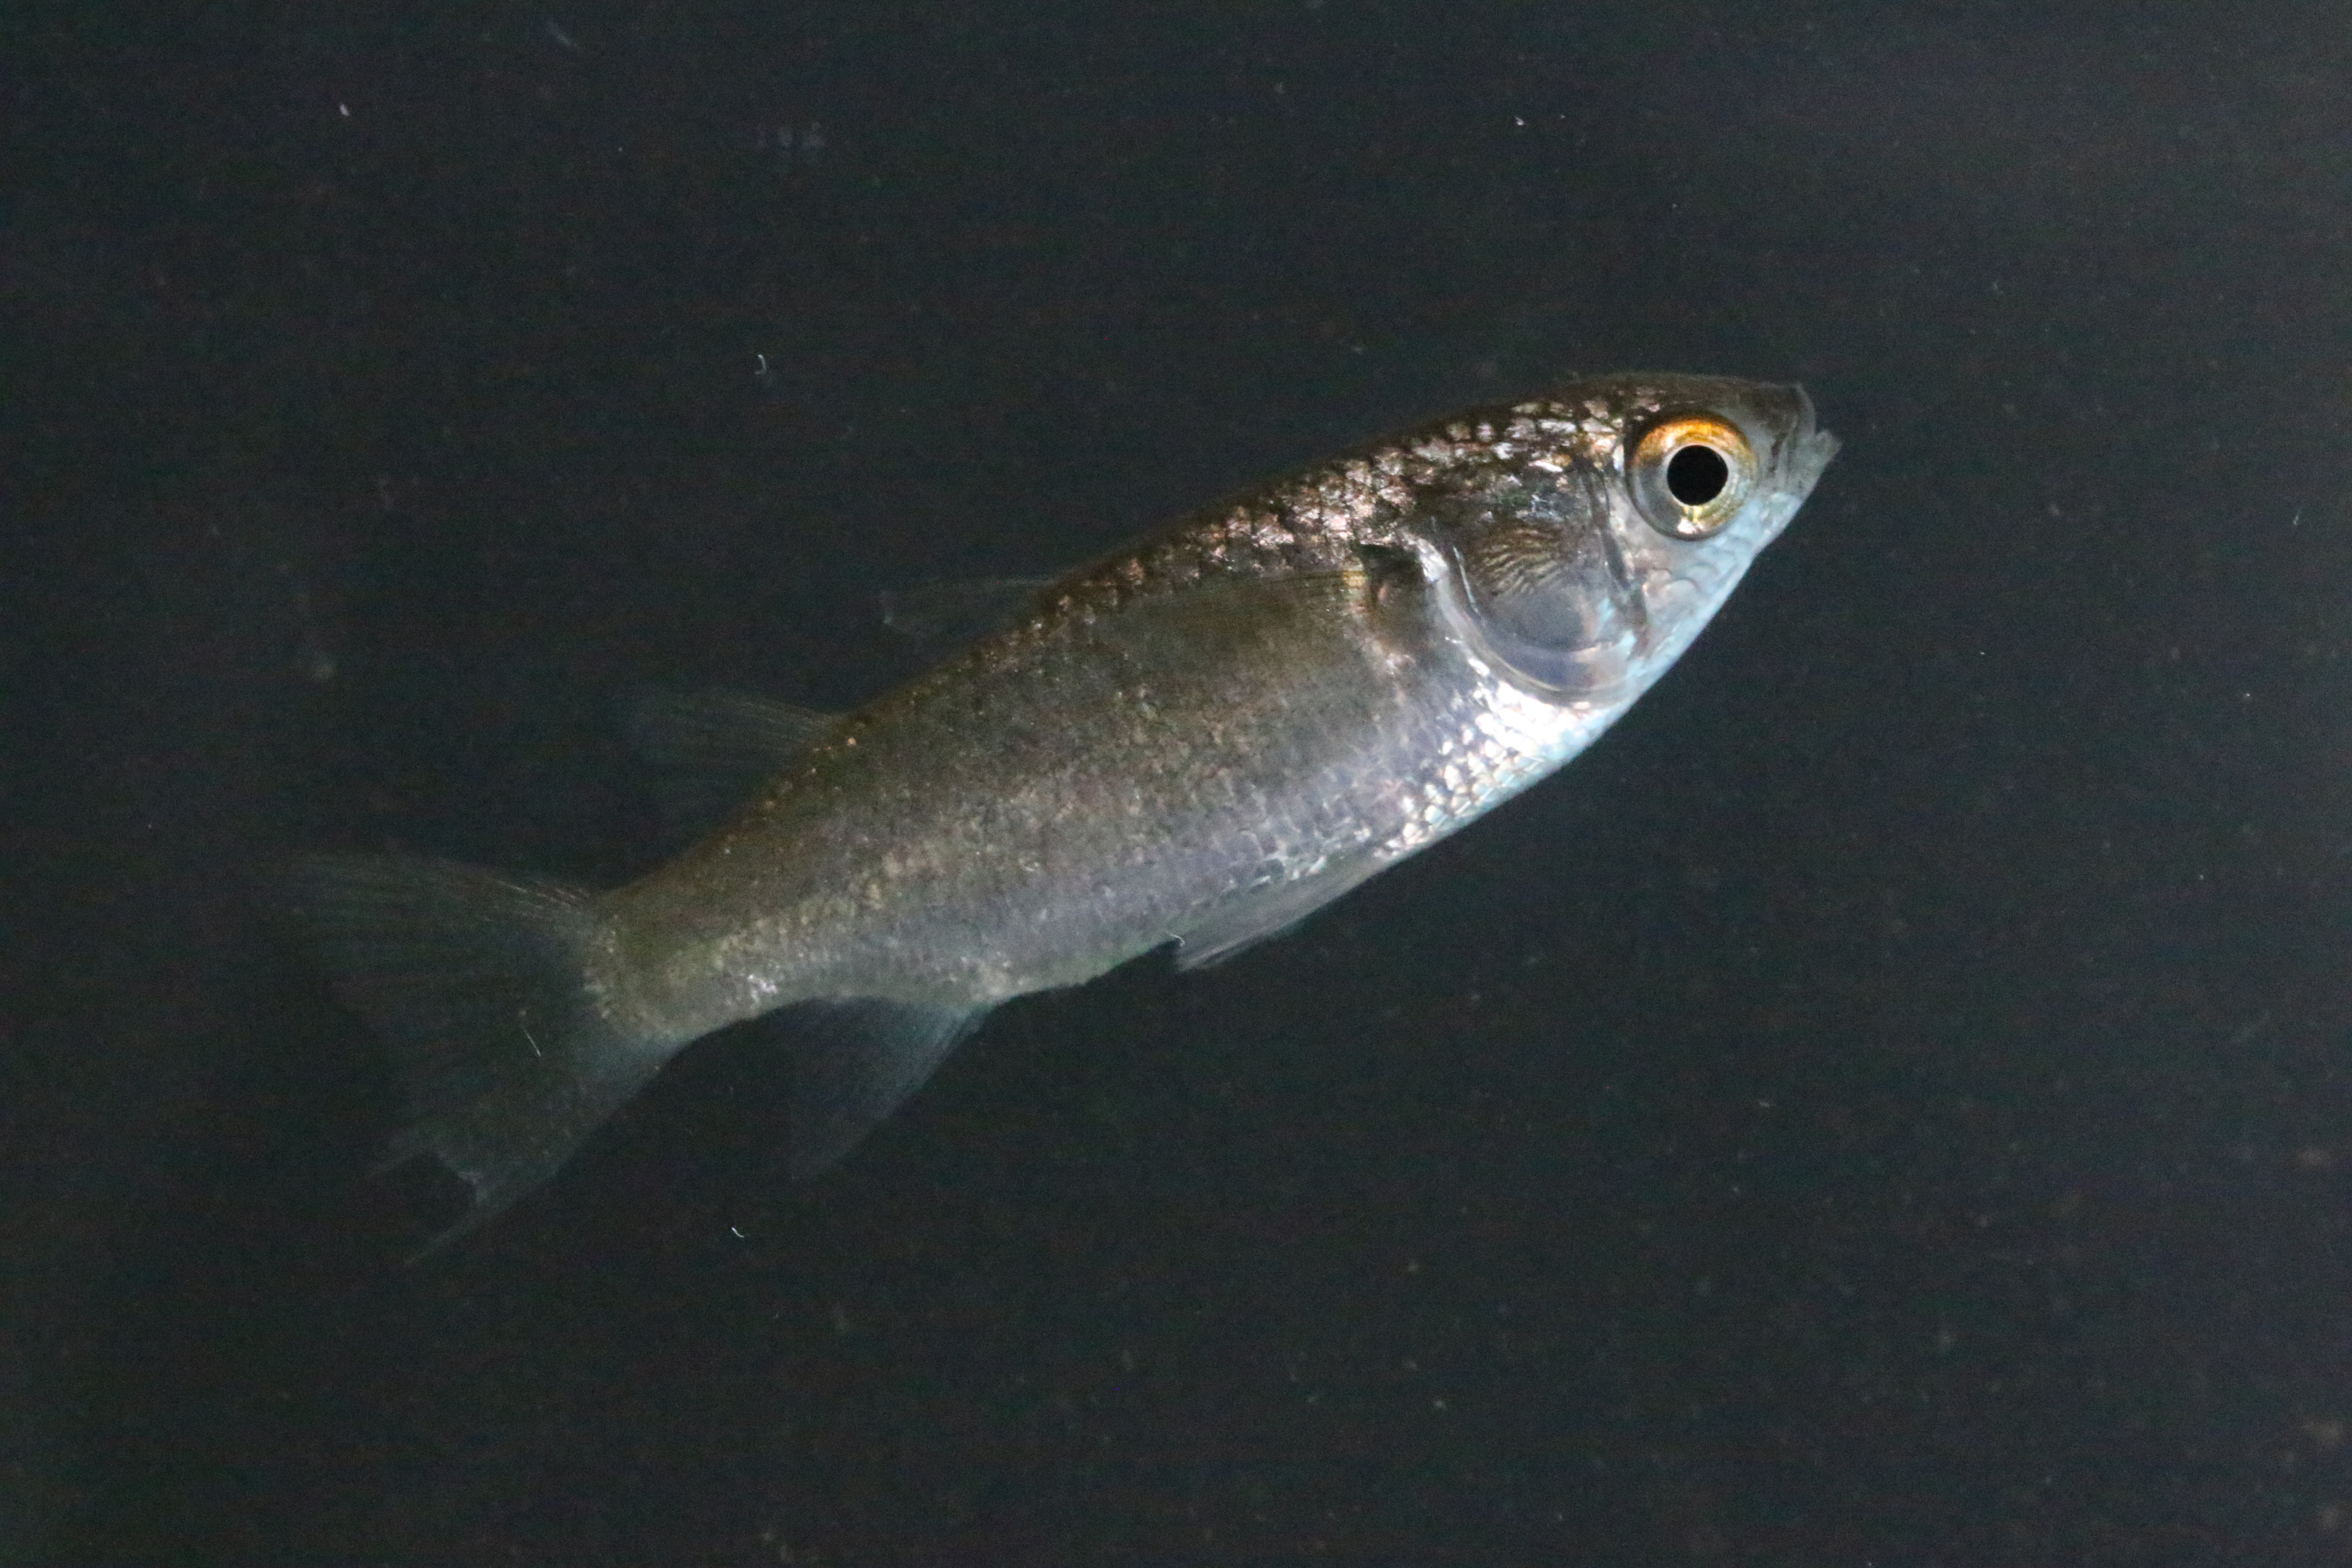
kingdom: Animalia
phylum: Chordata
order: Mugiliformes
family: Mugilidae
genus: Crenimugil
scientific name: Crenimugil buchanani
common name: Bluetail mullet
